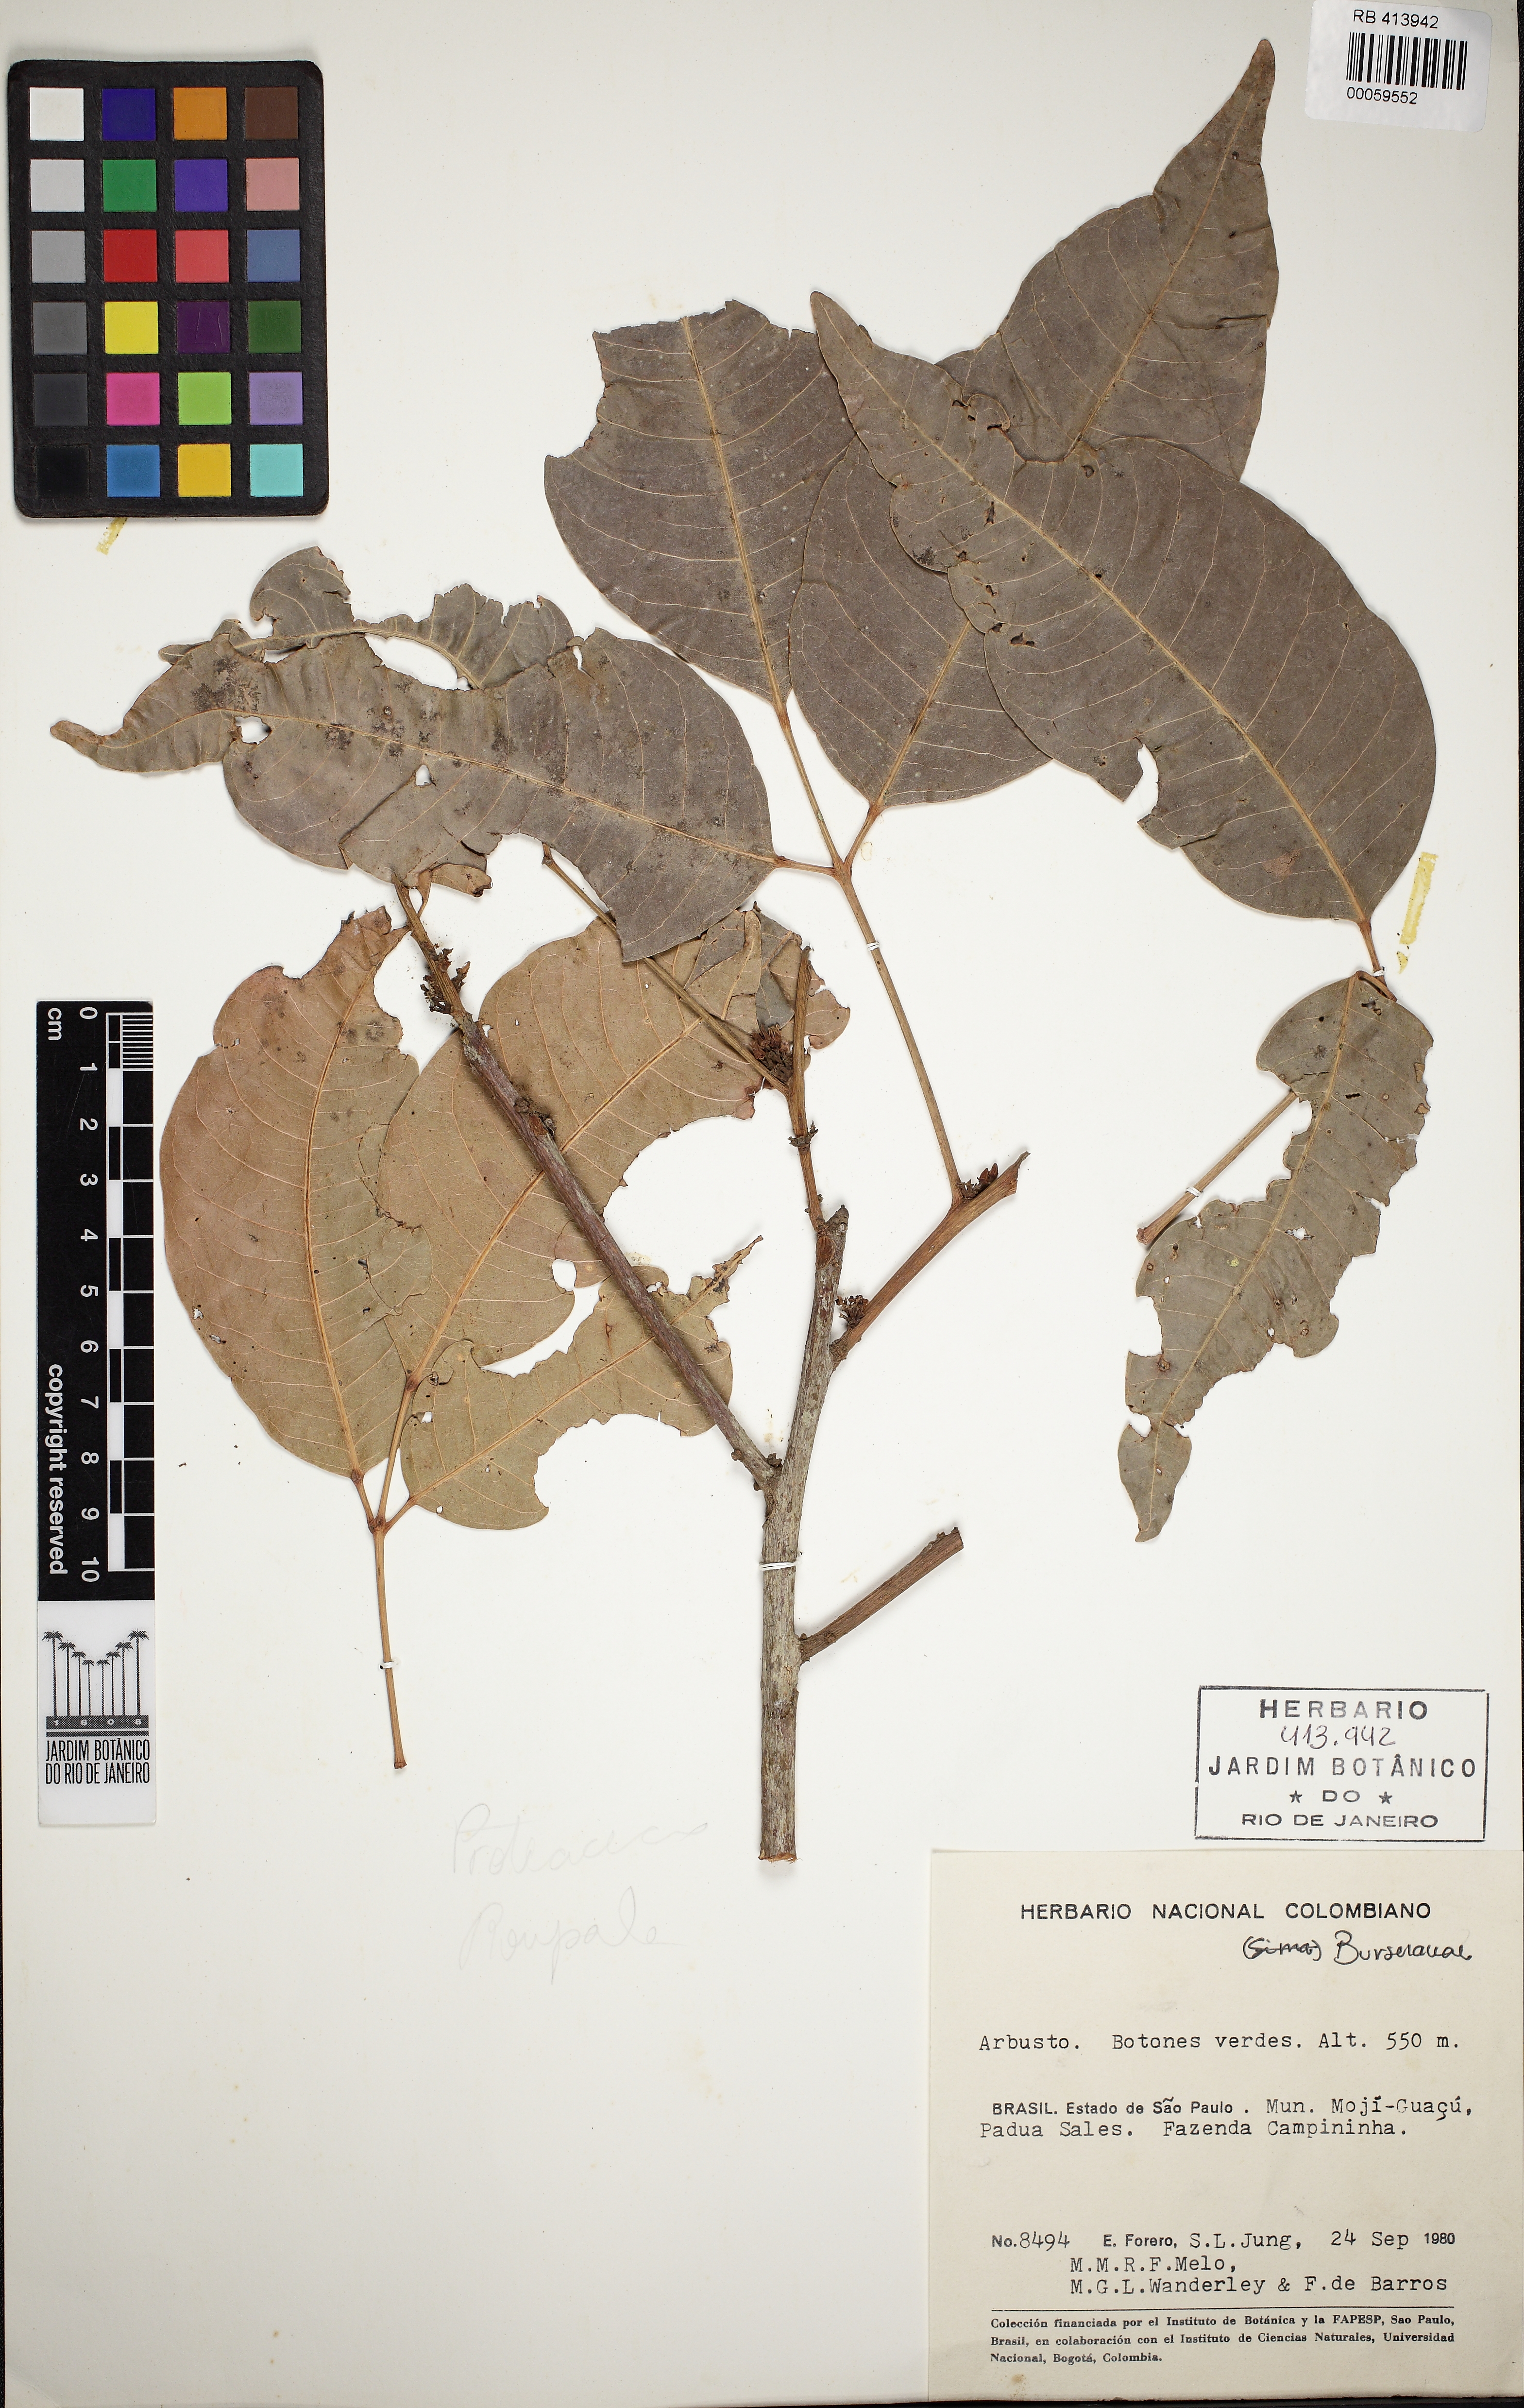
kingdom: Plantae
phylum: Tracheophyta
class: Magnoliopsida
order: Sapindales
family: Burseraceae
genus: Protium
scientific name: Protium heptaphyllum
